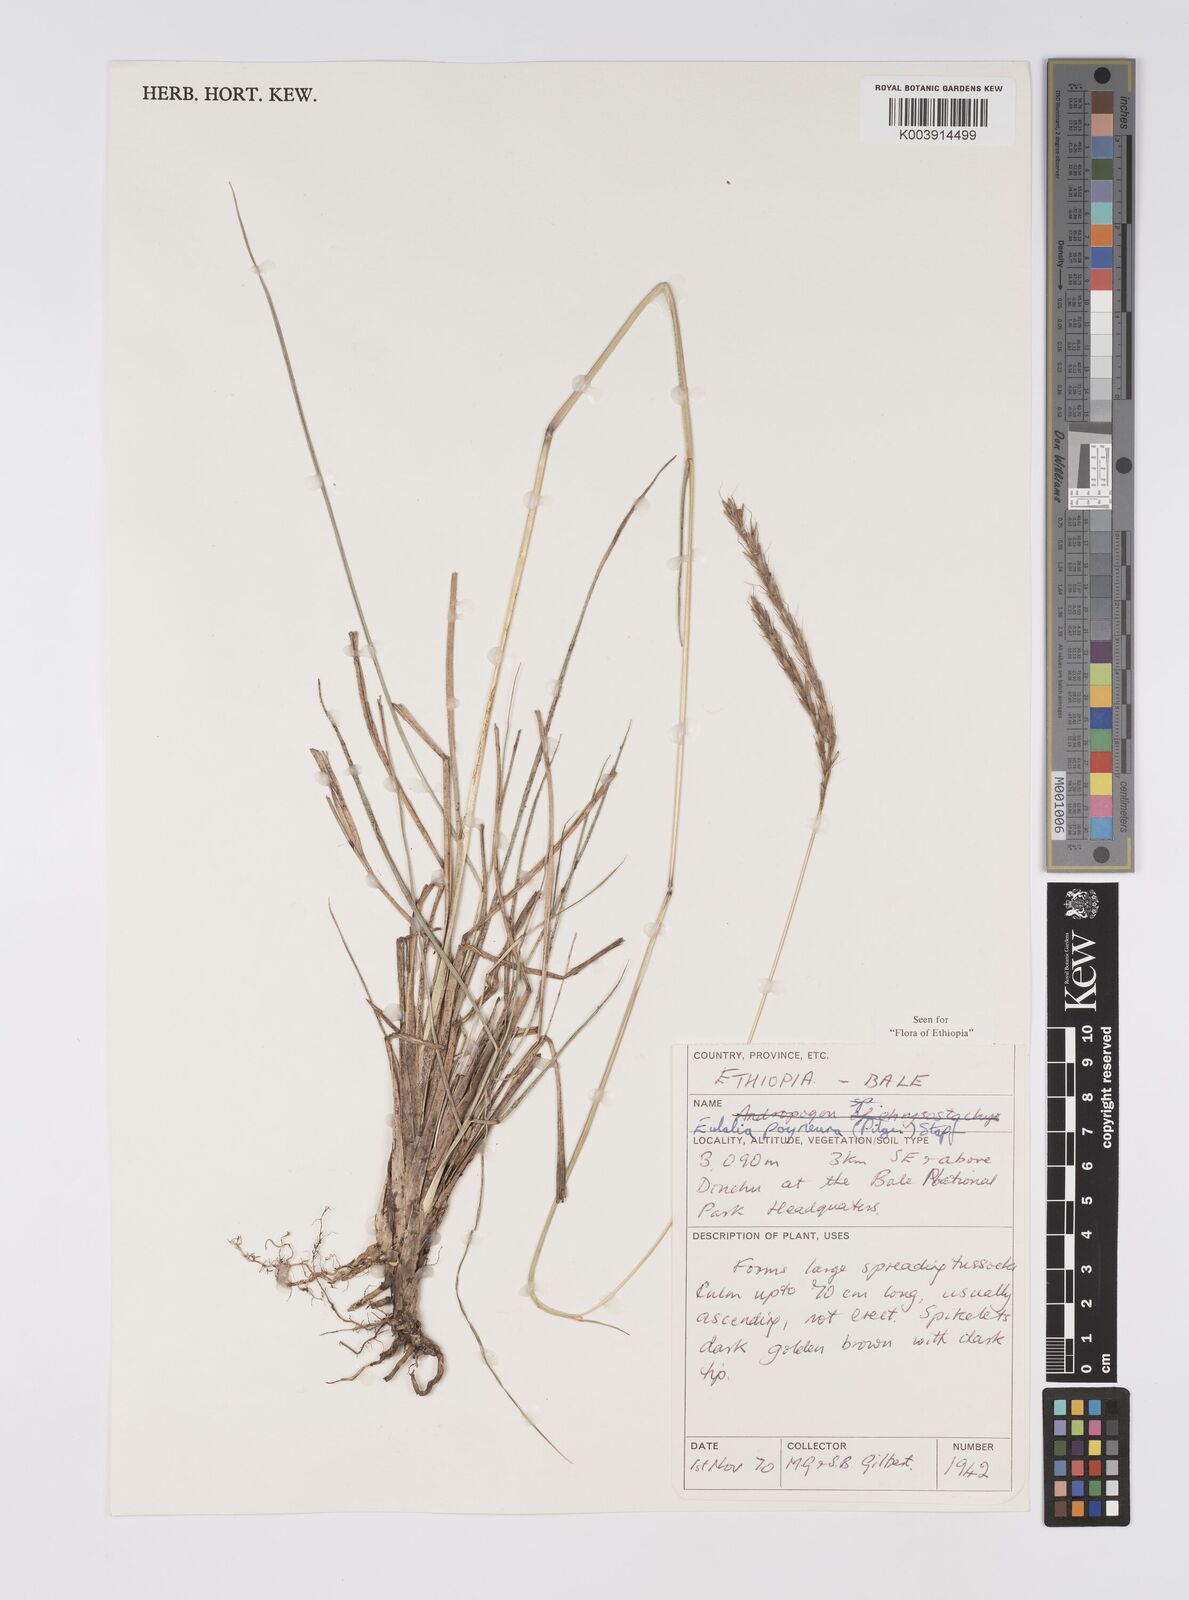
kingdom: Plantae
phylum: Tracheophyta
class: Liliopsida
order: Poales
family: Poaceae
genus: Eulalia
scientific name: Eulalia polyneura
